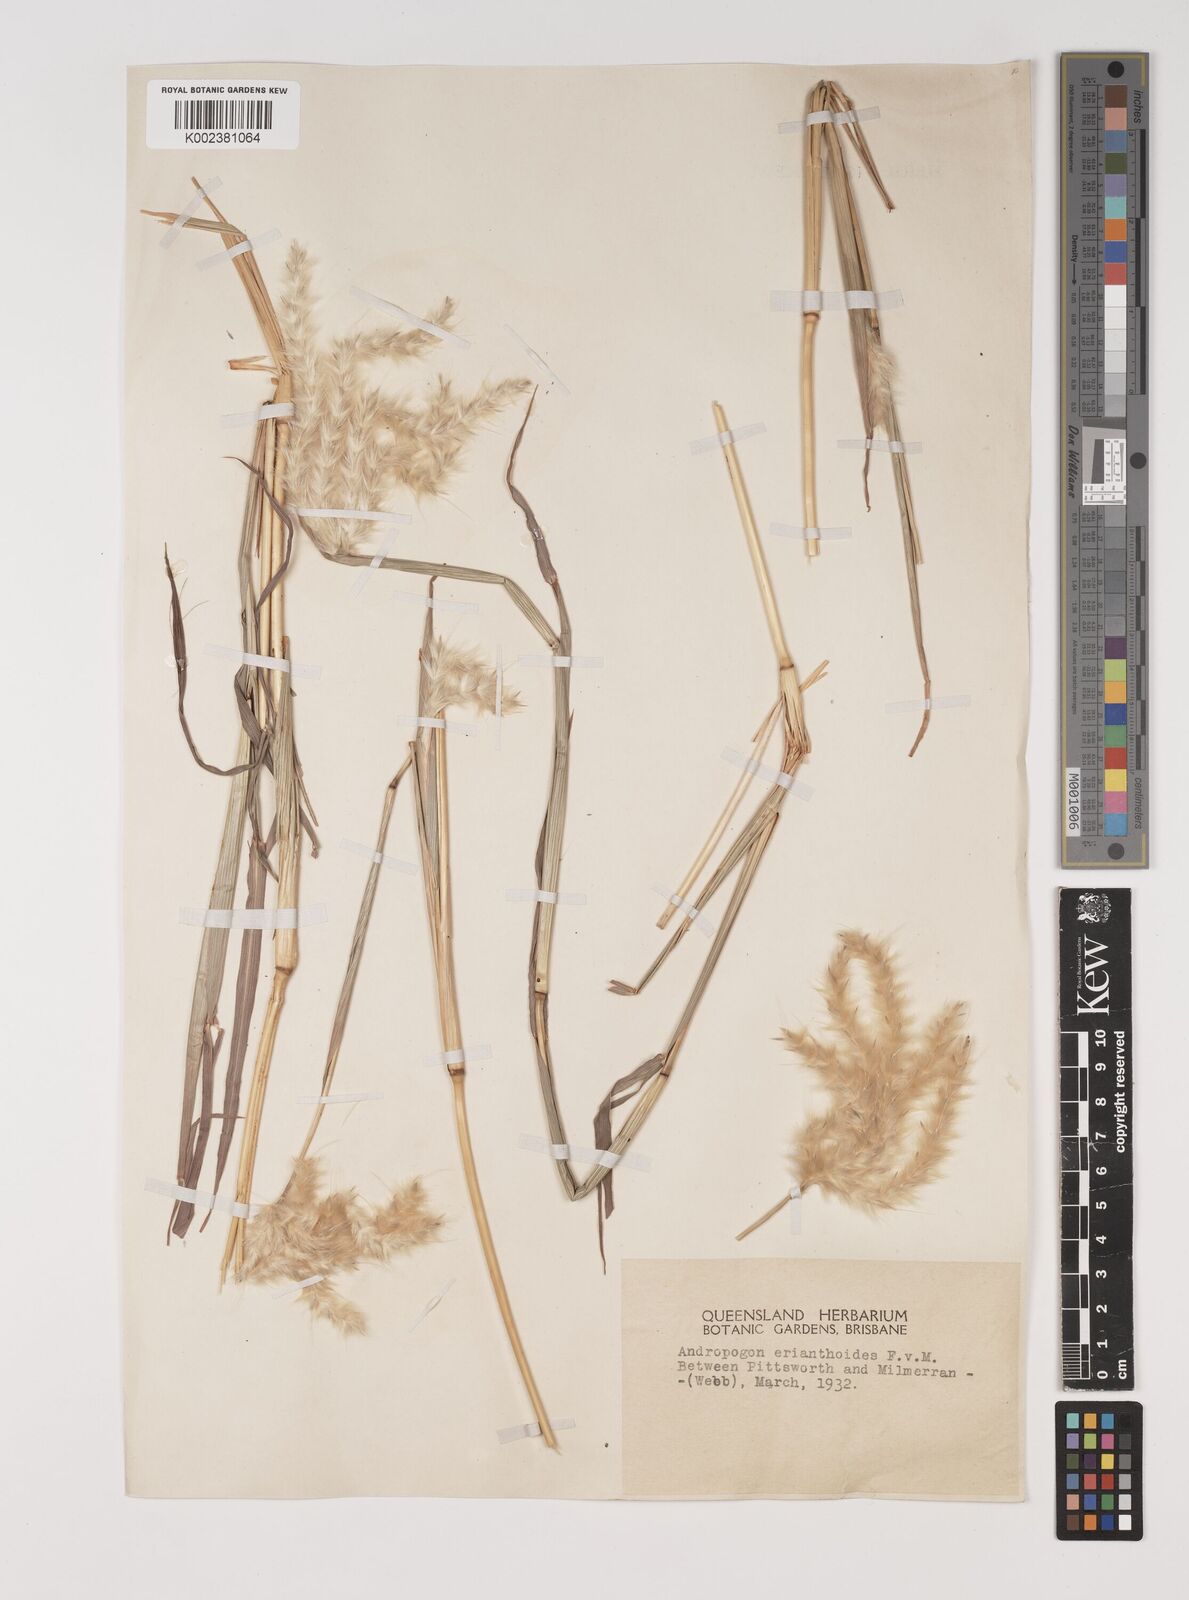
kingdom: Plantae
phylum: Tracheophyta
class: Liliopsida
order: Poales
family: Poaceae
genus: Bothriochloa
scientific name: Bothriochloa erianthoides
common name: Satin-top grass
